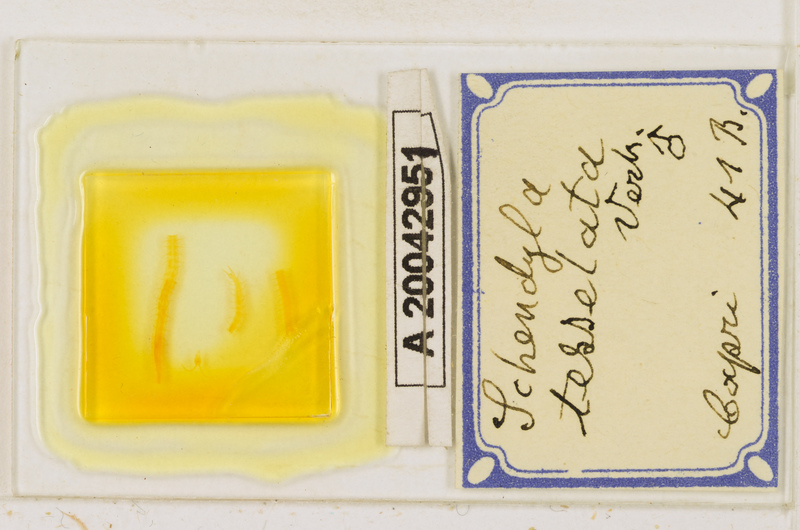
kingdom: Animalia
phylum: Arthropoda
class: Chilopoda
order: Geophilomorpha
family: Schendylidae
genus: Schendyla
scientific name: Schendyla tesselata
